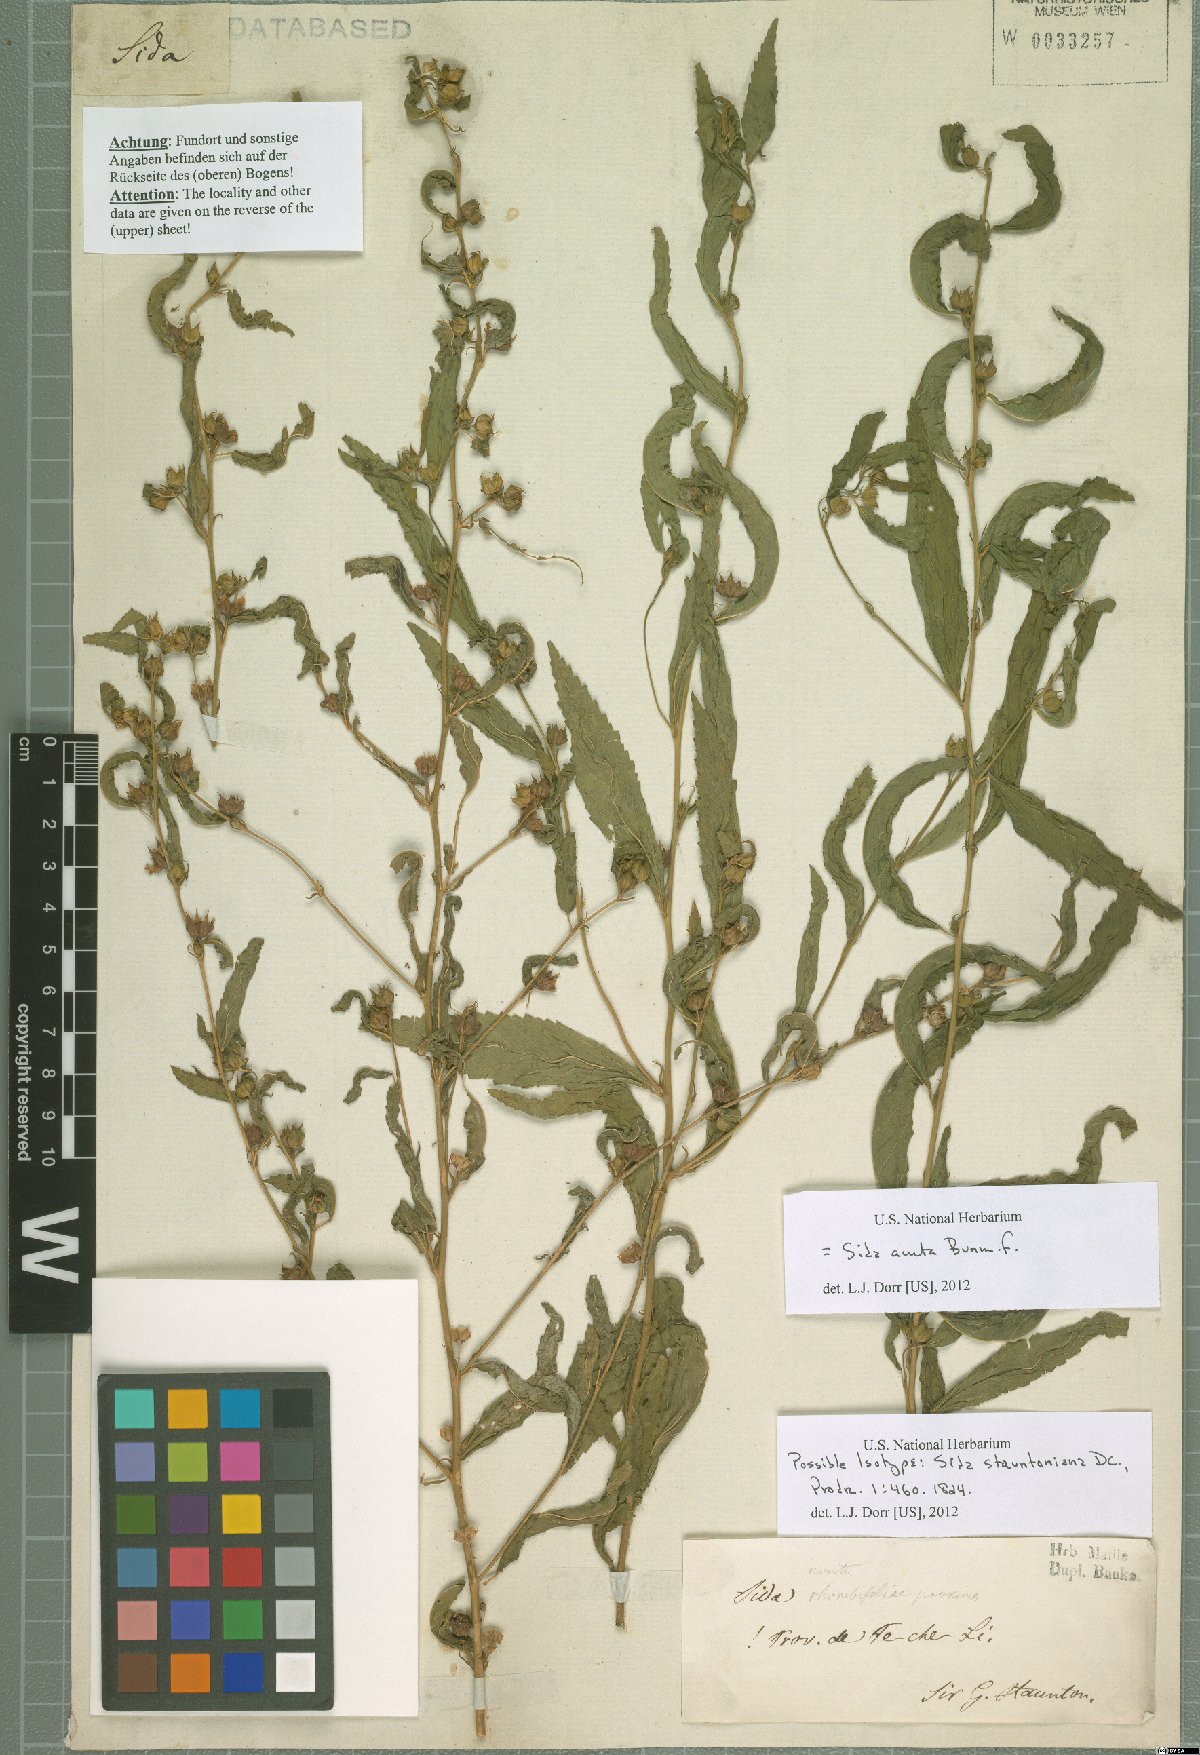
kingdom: Plantae
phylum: Tracheophyta
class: Magnoliopsida
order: Malvales
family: Malvaceae
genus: Sida
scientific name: Sida acuta
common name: Common wireweed
